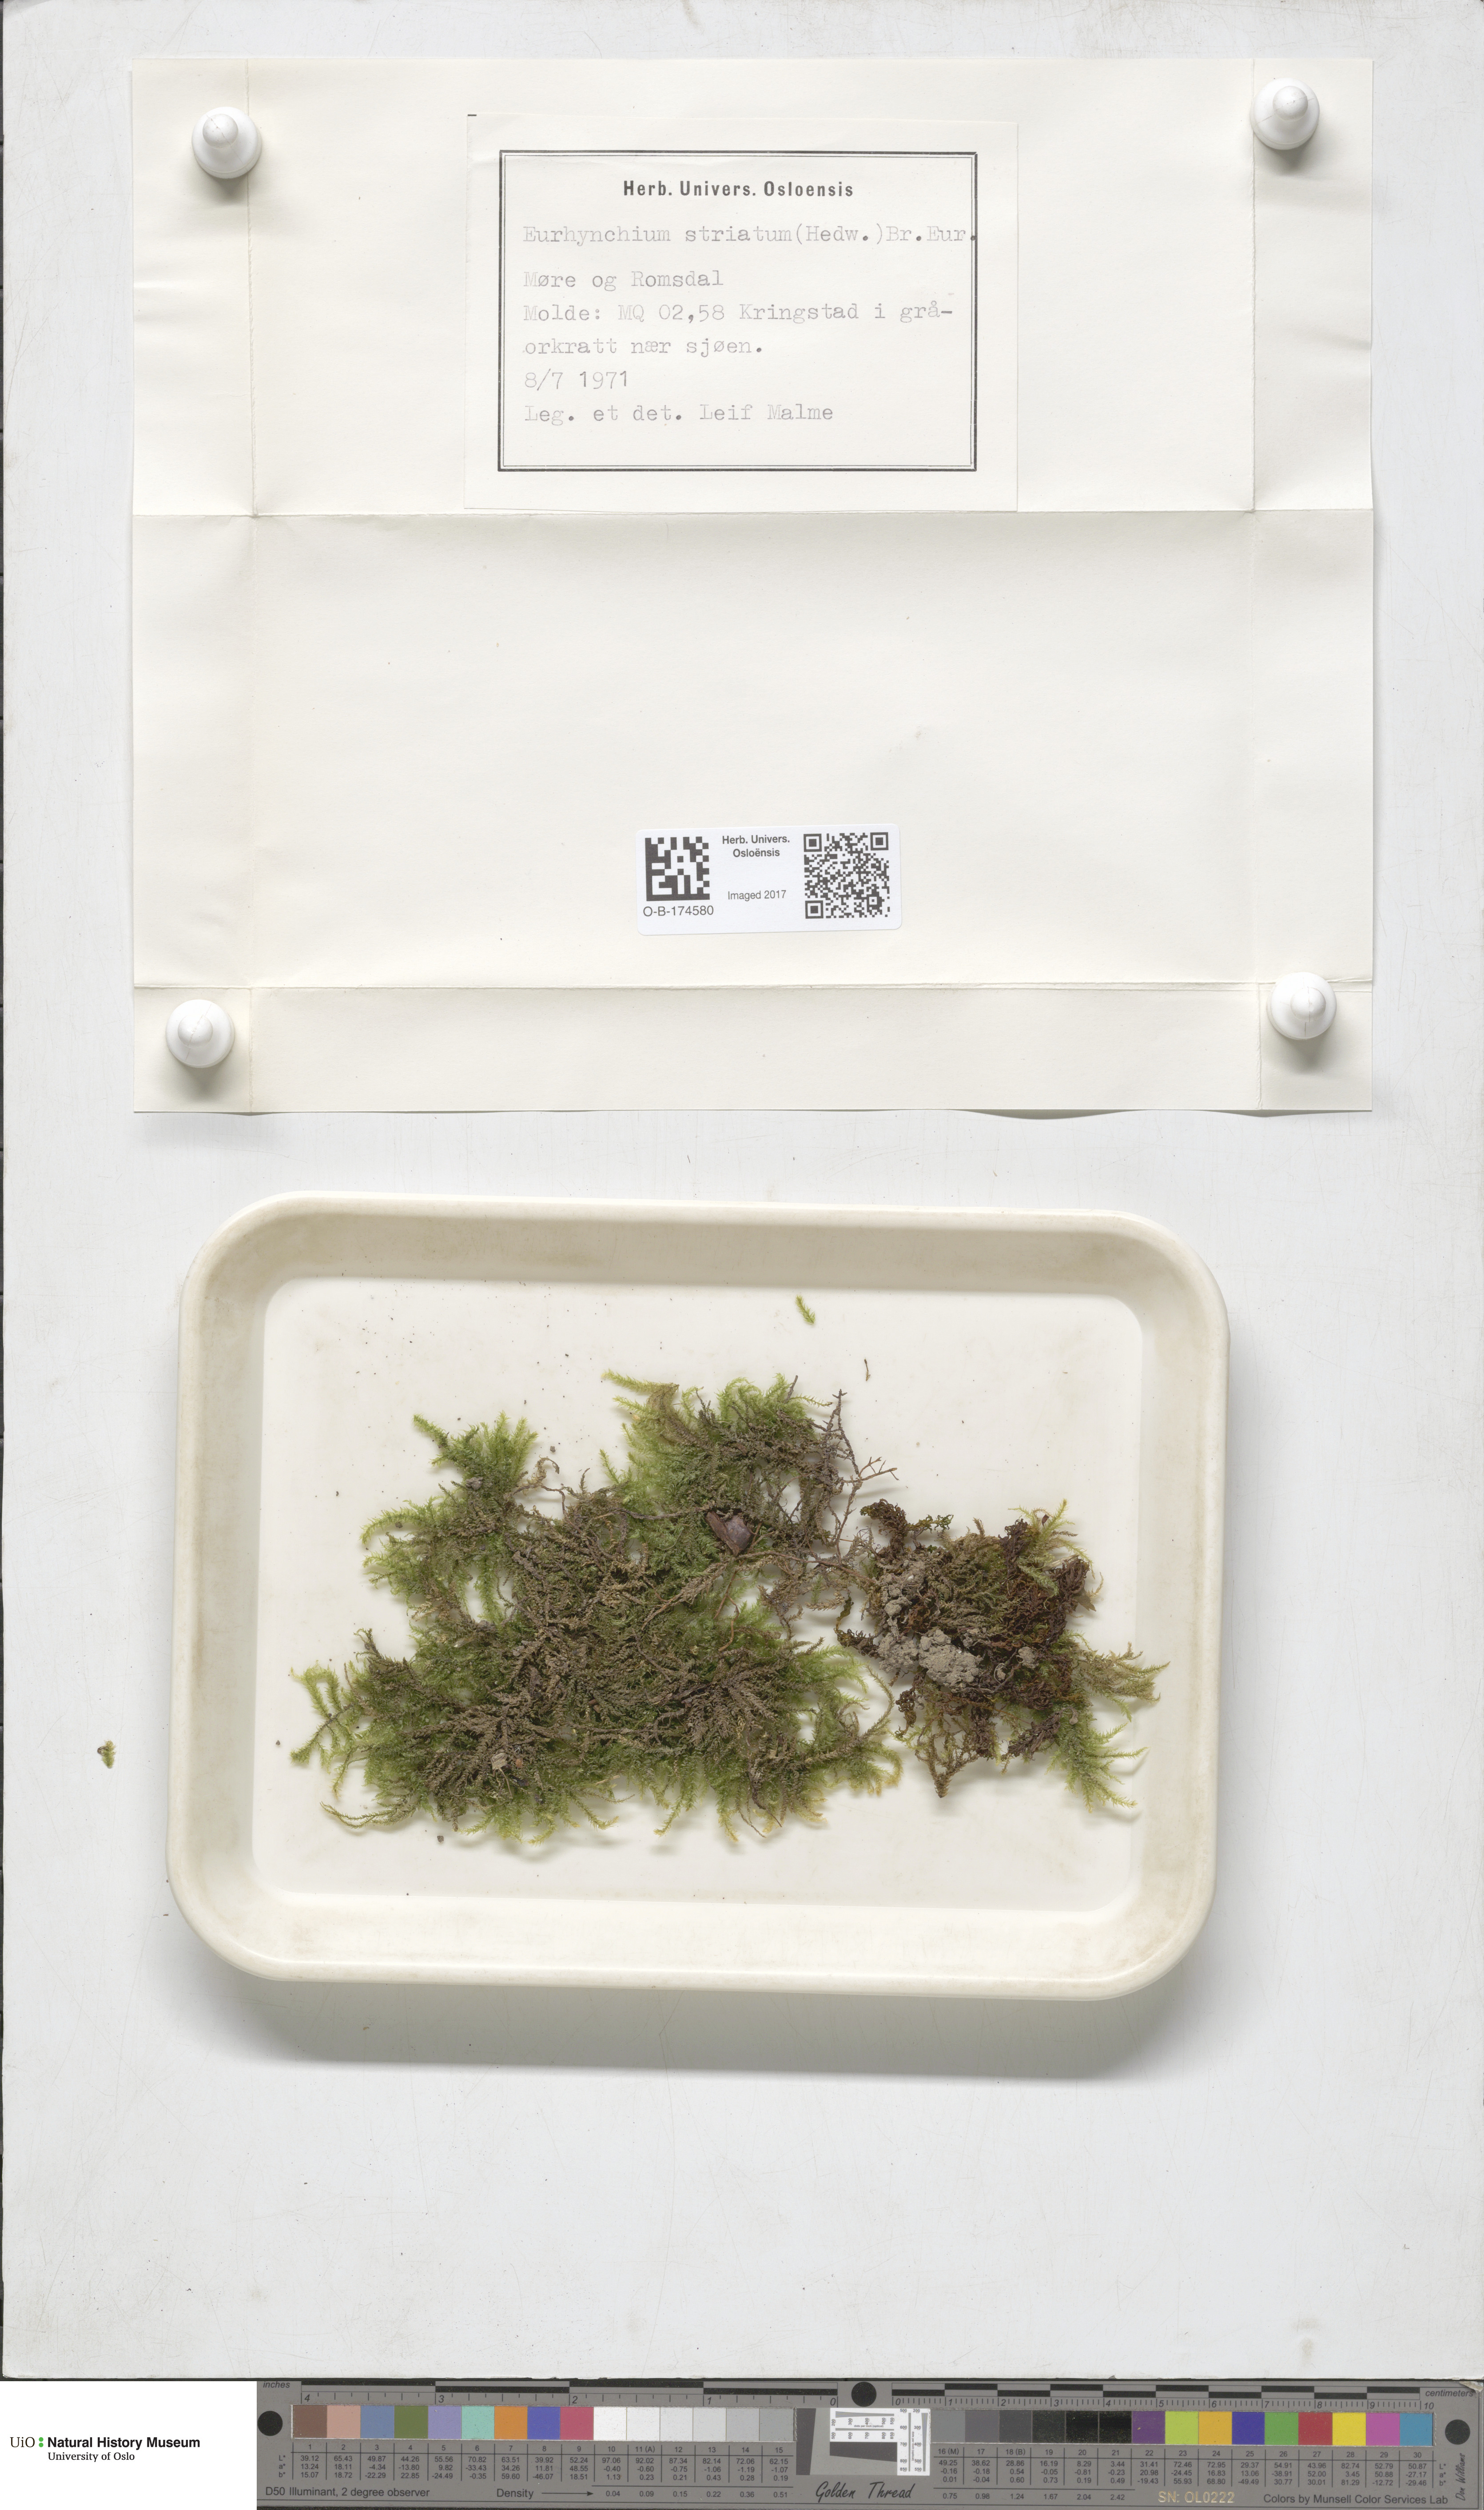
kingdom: Plantae
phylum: Bryophyta
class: Bryopsida
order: Hypnales
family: Brachytheciaceae
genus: Eurhynchium
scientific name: Eurhynchium striatum
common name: Common striated feather-moss
